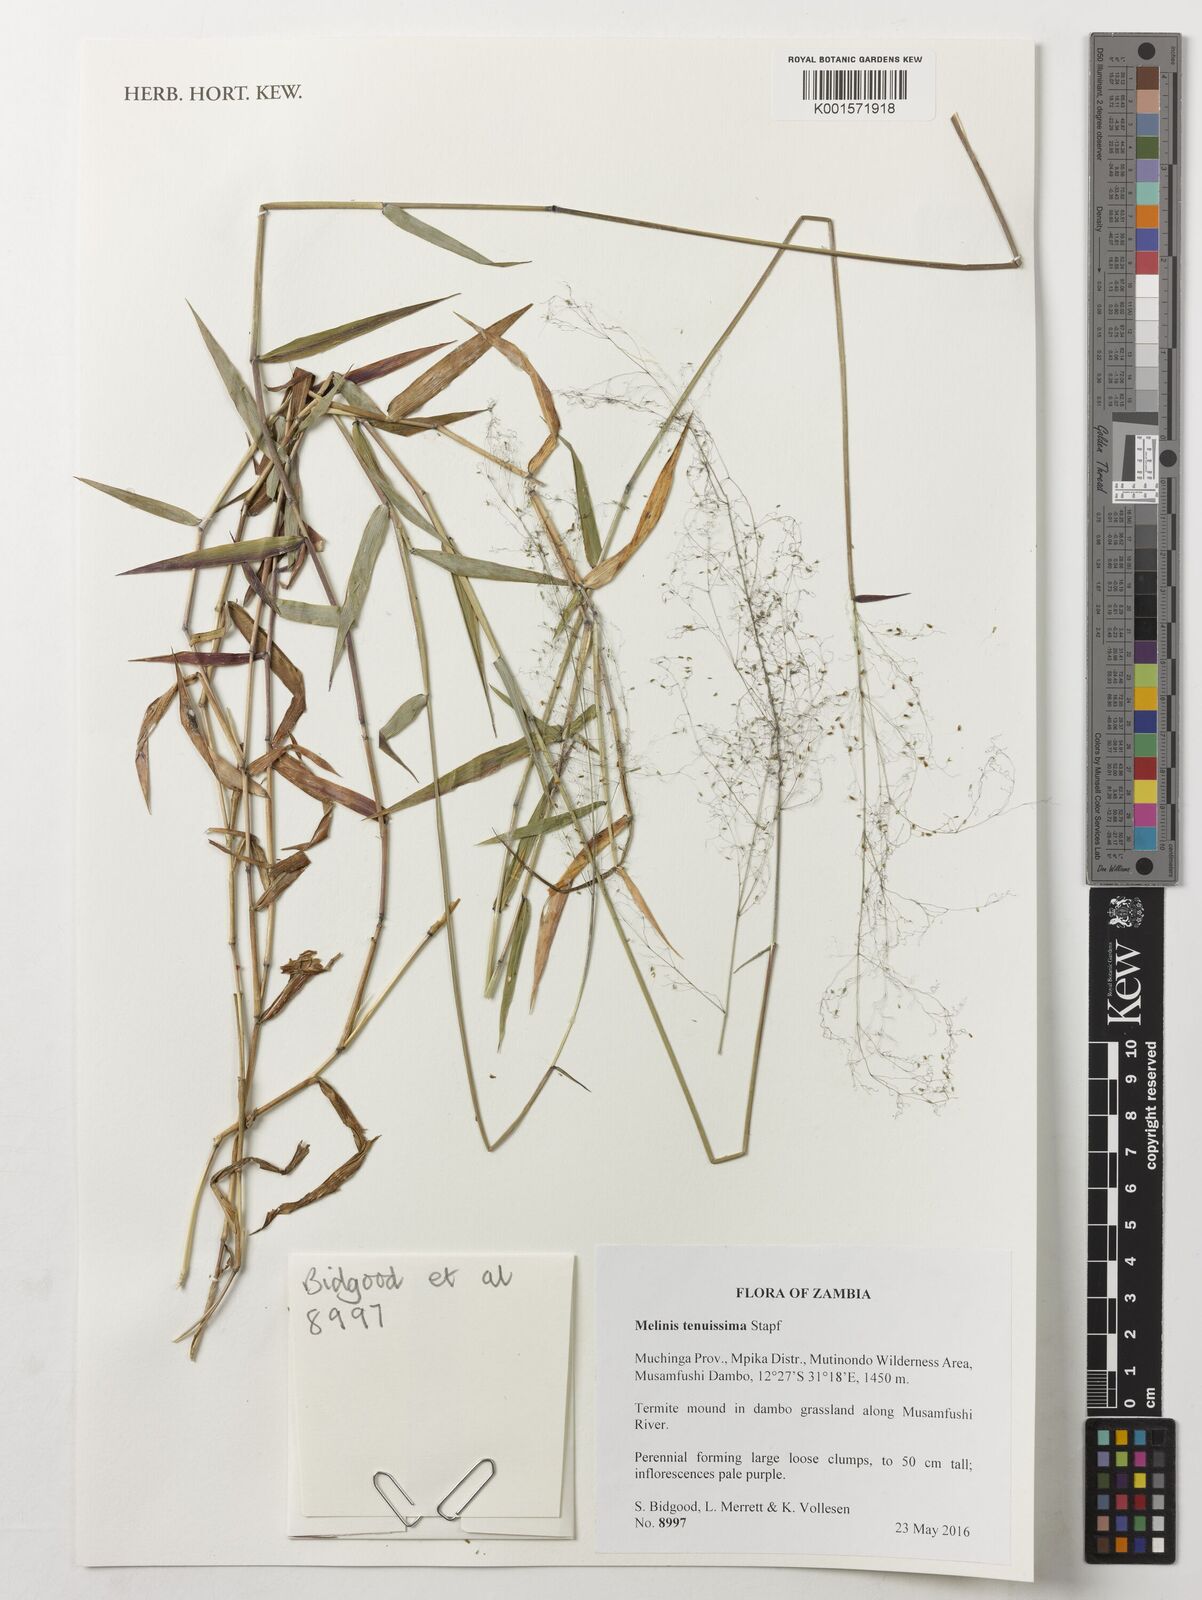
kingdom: Plantae
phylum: Tracheophyta
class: Liliopsida
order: Poales
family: Poaceae
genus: Melinis
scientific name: Melinis tenuissima
